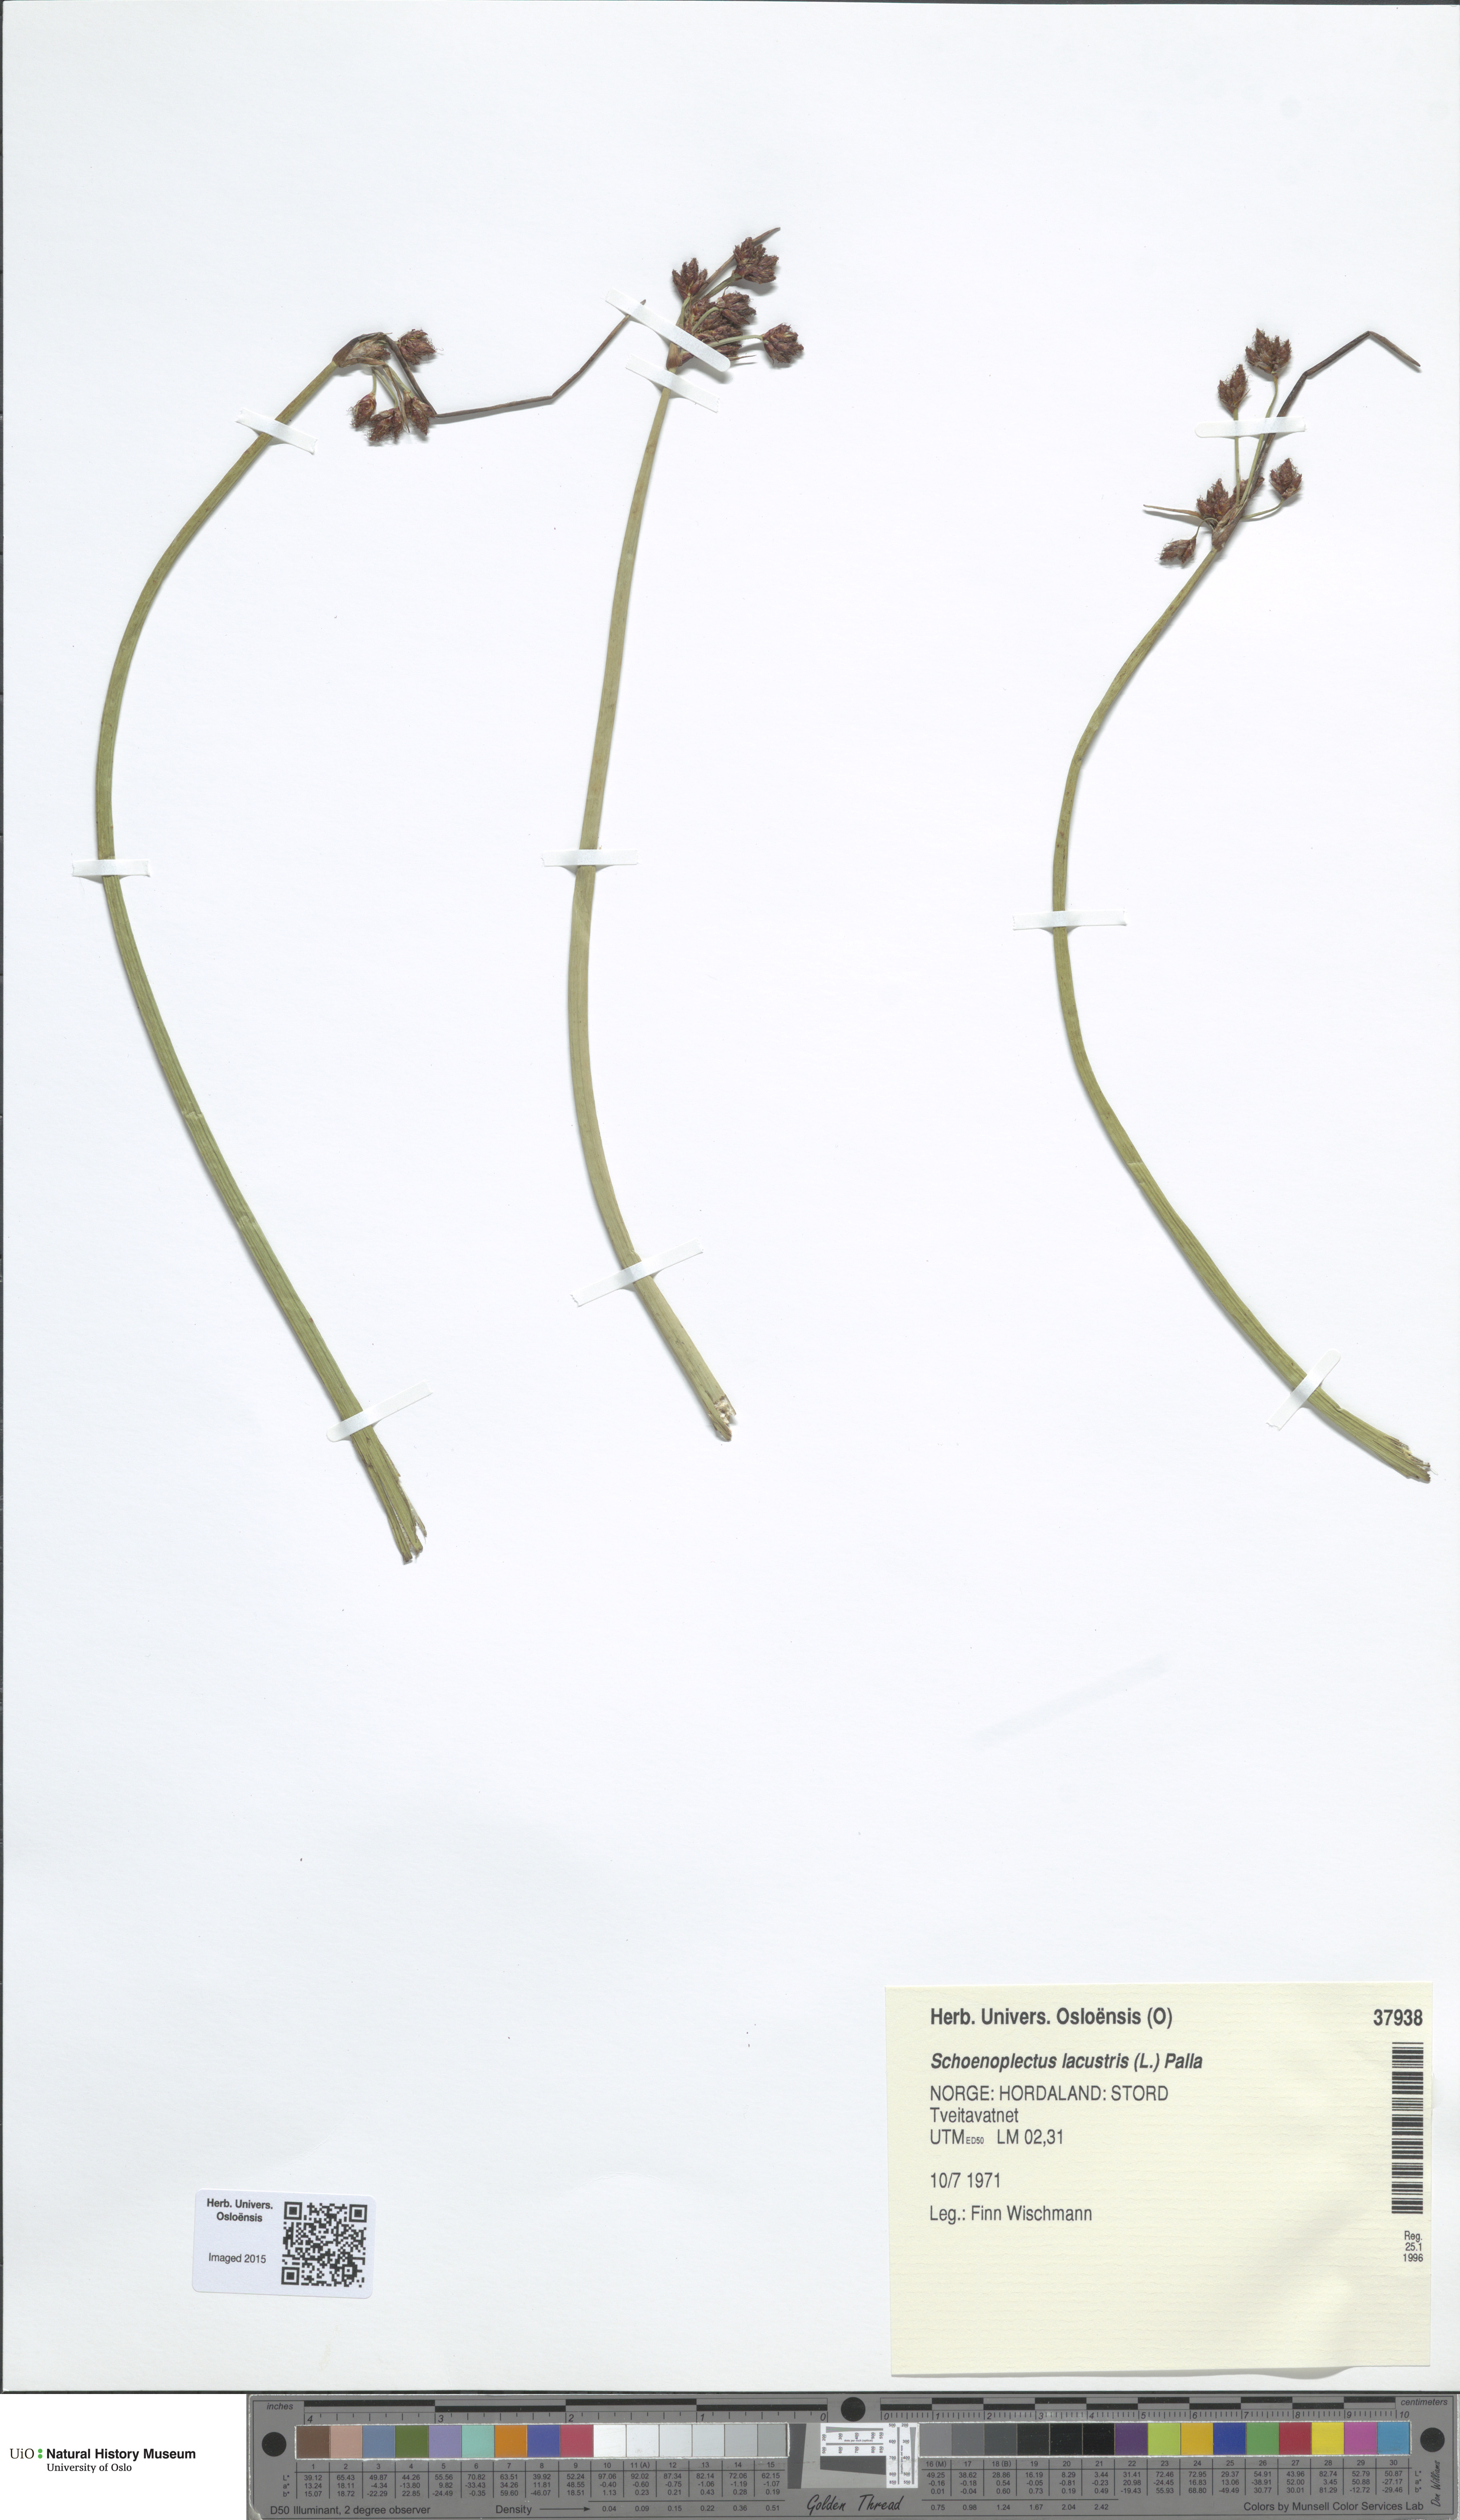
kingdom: Plantae
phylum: Tracheophyta
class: Liliopsida
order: Poales
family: Cyperaceae
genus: Schoenoplectus
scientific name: Schoenoplectus lacustris
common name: Common club-rush
